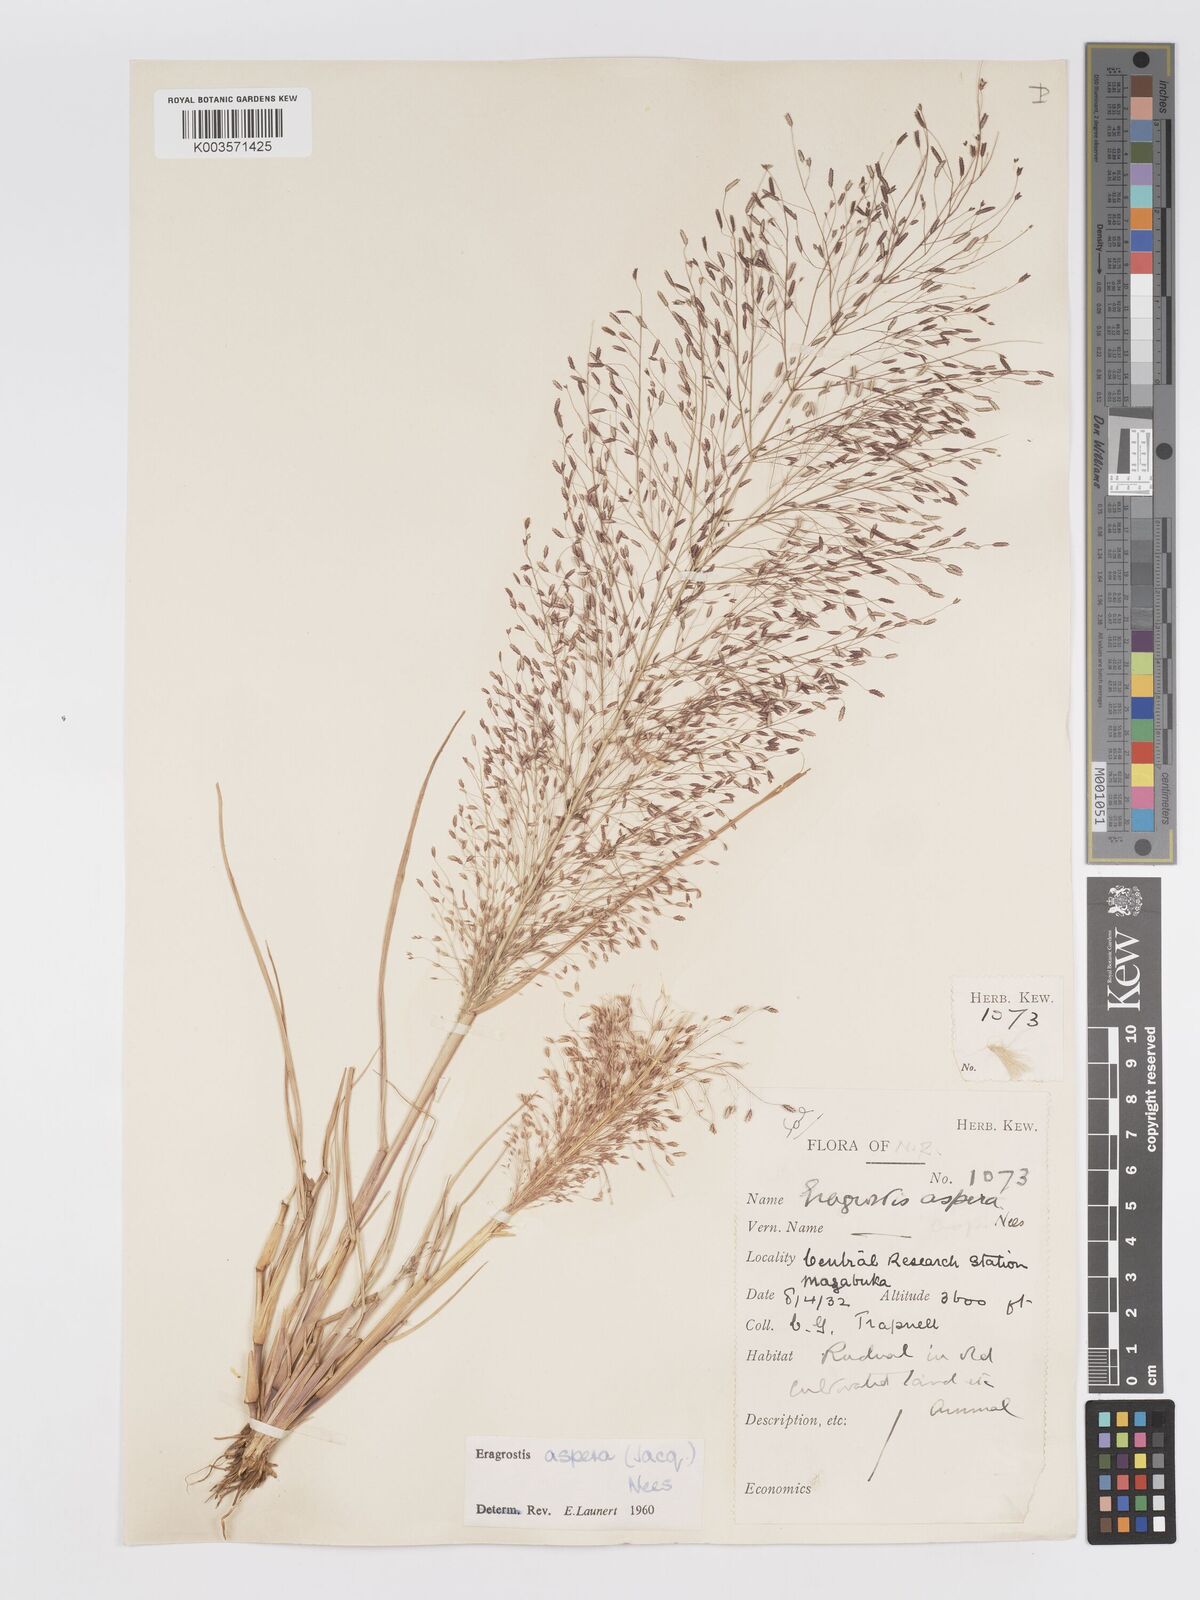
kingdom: Plantae
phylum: Tracheophyta
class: Liliopsida
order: Poales
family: Poaceae
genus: Eragrostis
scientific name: Eragrostis aspera
